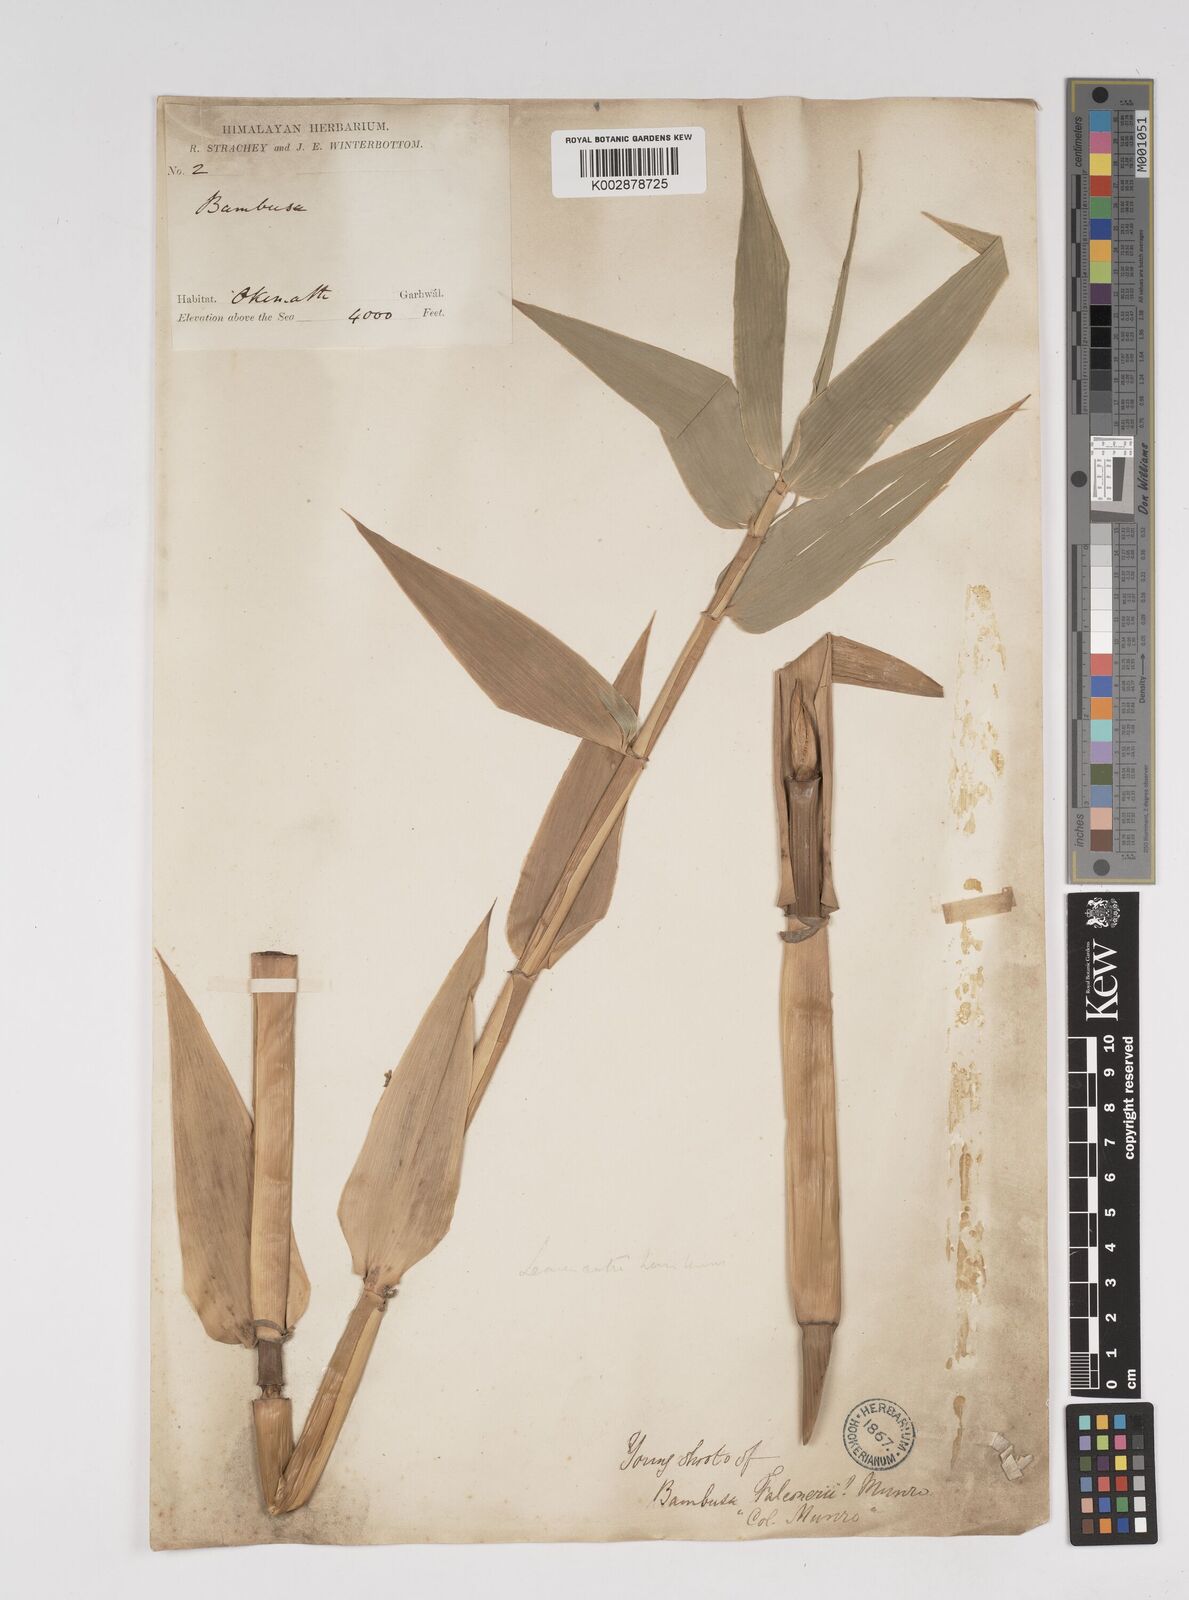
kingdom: Plantae
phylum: Tracheophyta
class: Liliopsida
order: Poales
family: Poaceae
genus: Dendrocalamus
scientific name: Dendrocalamus hamiltonii
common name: Tama bamboo
